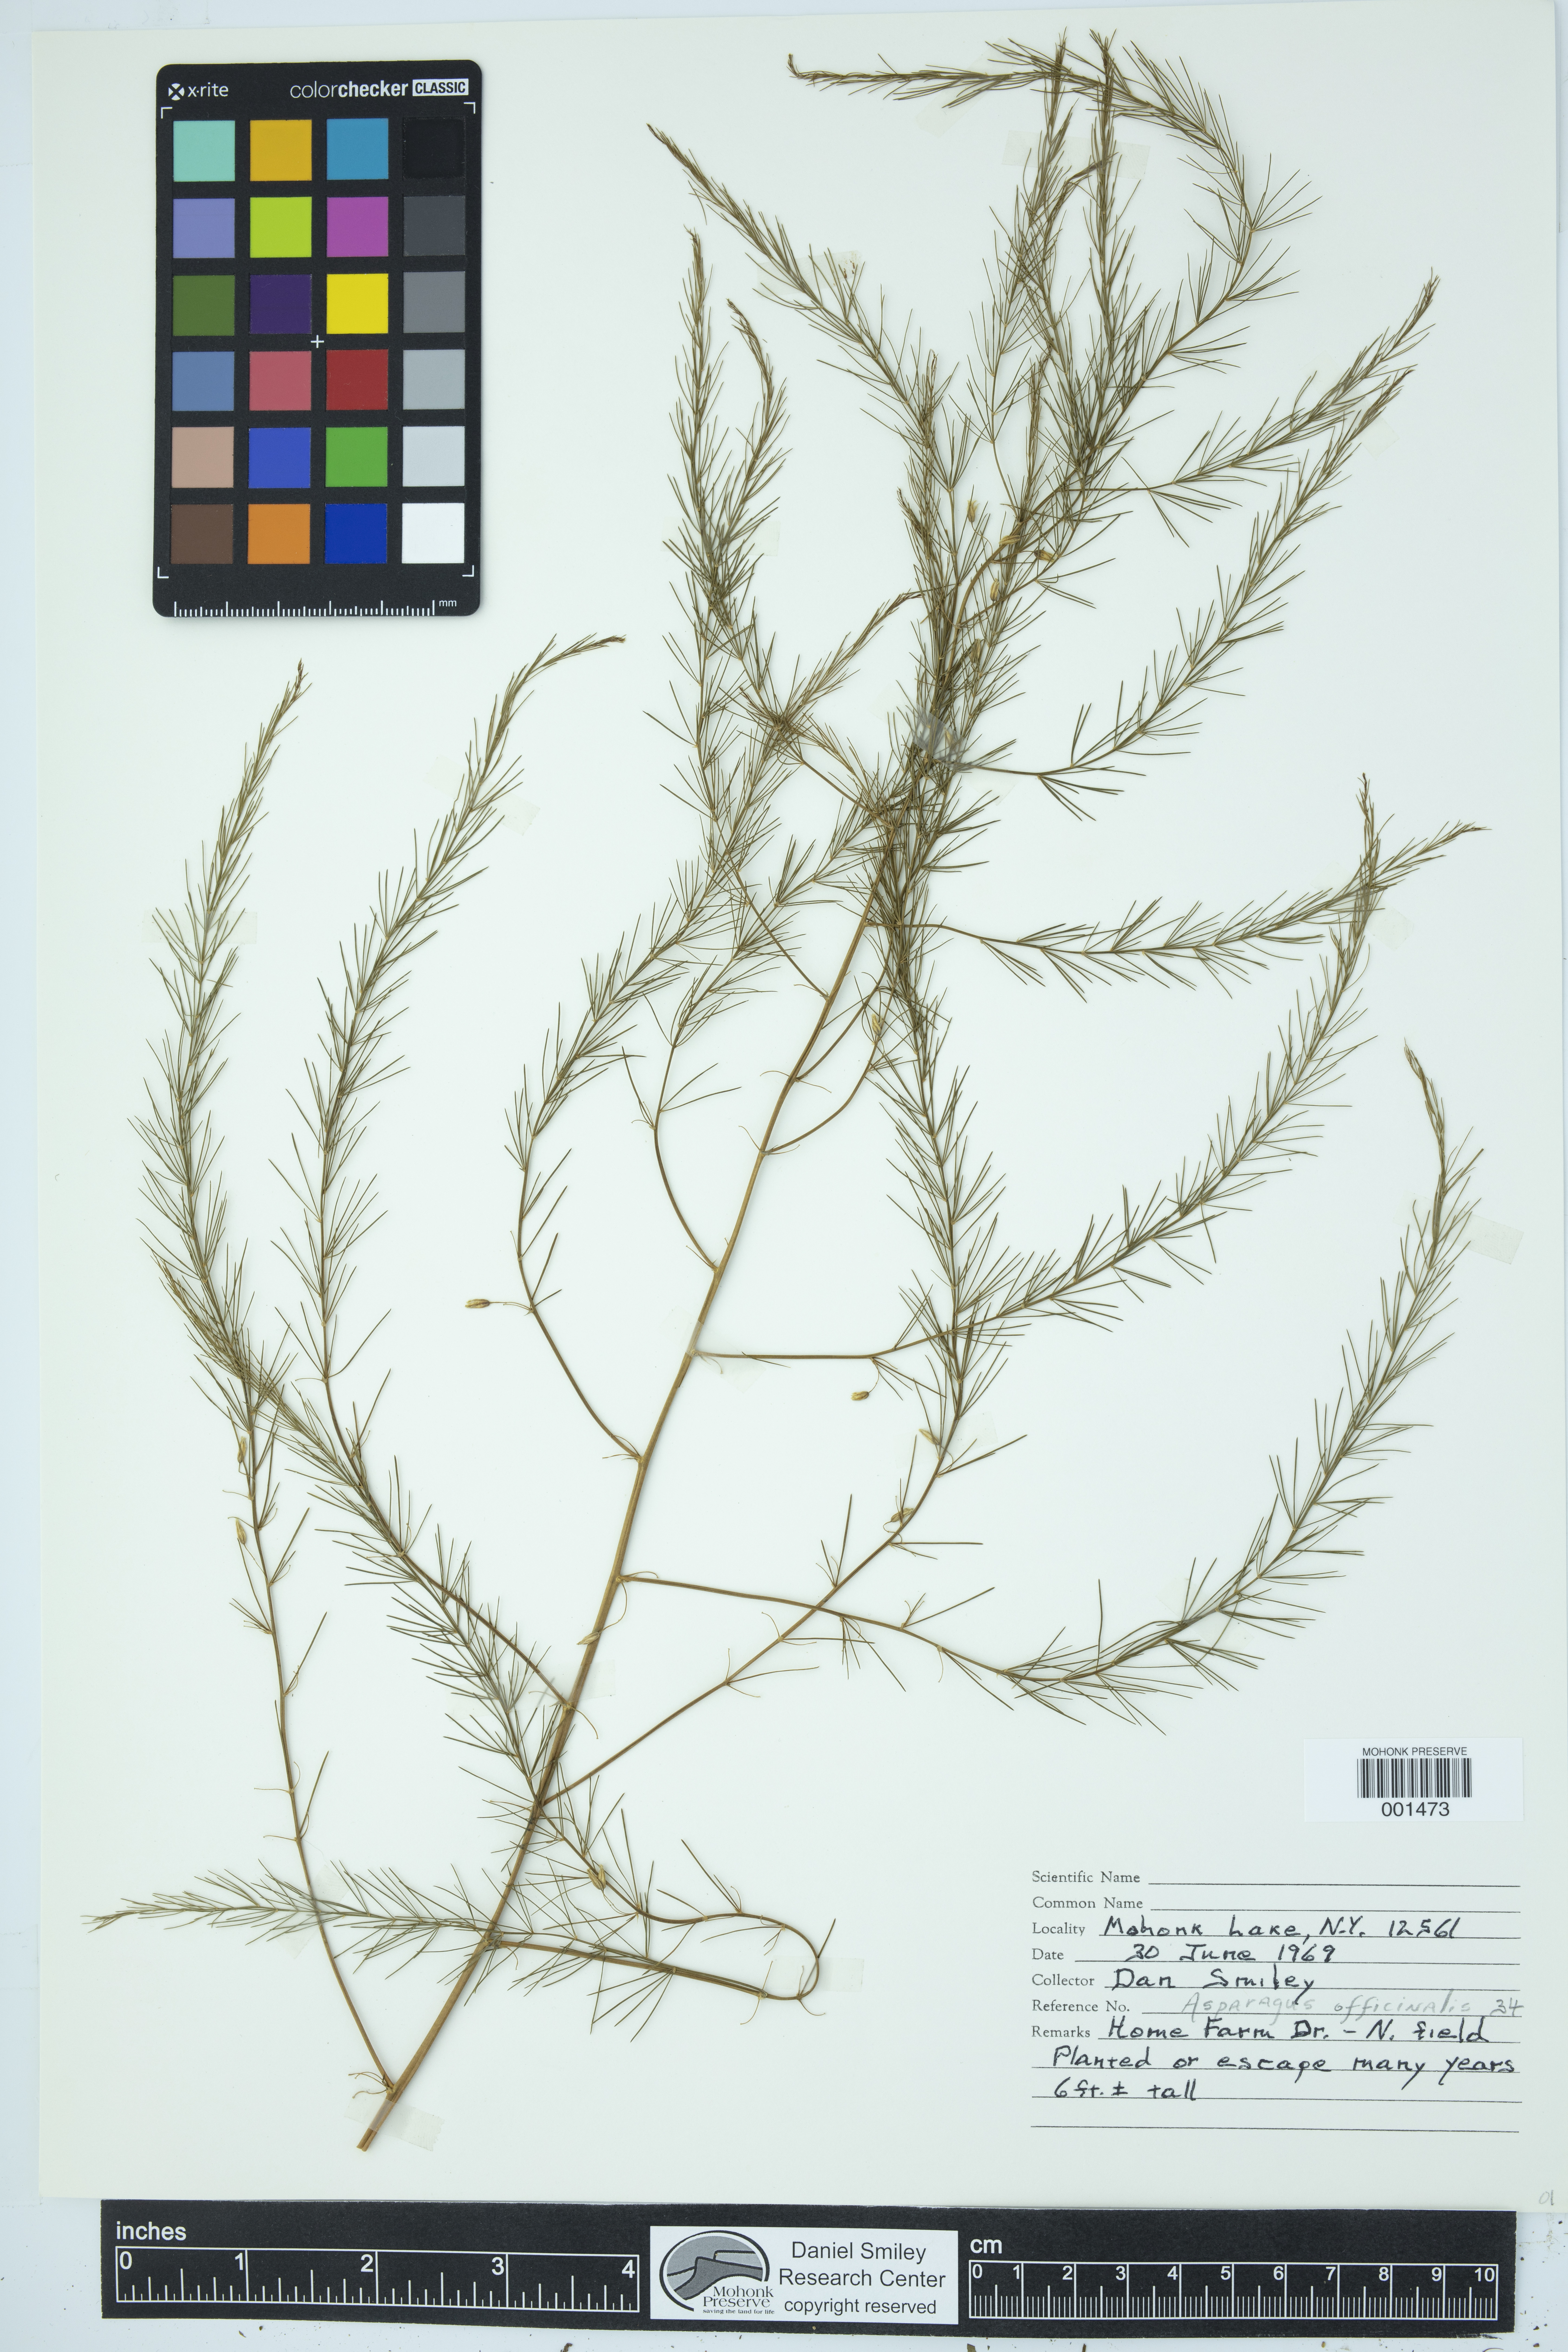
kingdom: Plantae
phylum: Tracheophyta
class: Liliopsida
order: Asparagales
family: Asparagaceae
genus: Asparagus
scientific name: Asparagus officinalis
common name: Garden asparagus
